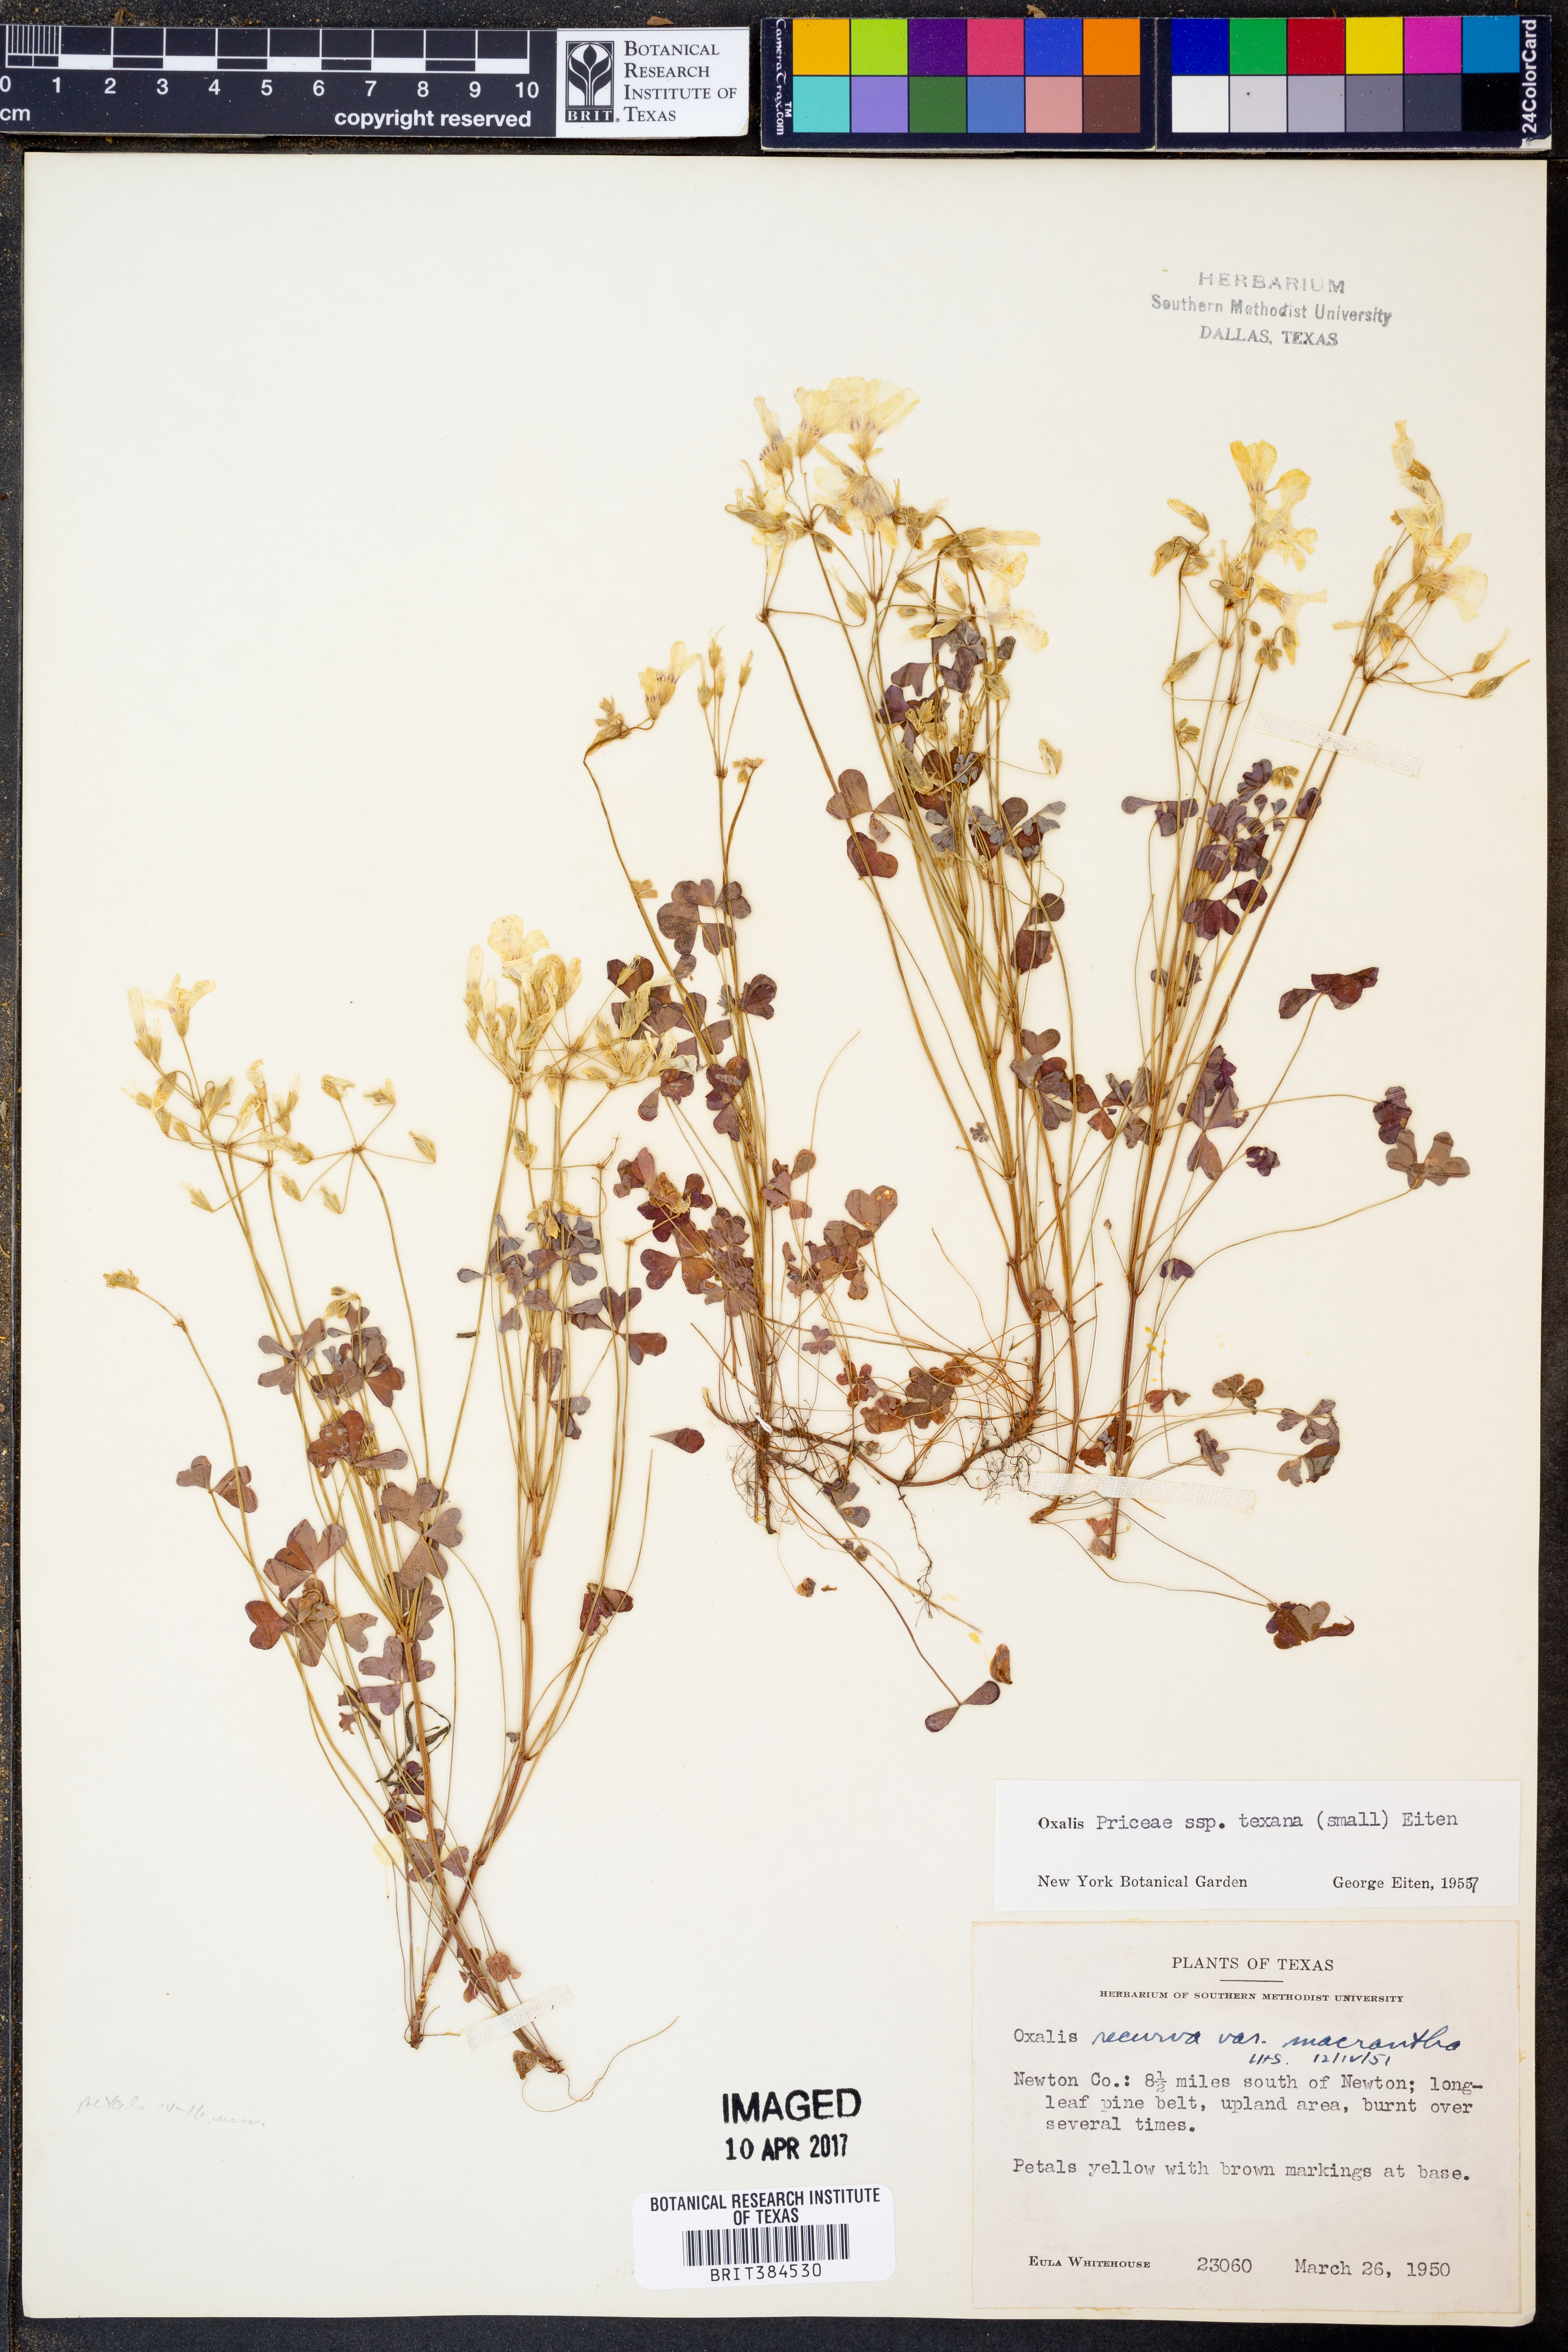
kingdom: Plantae
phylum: Tracheophyta
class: Magnoliopsida
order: Oxalidales
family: Oxalidaceae
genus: Oxalis
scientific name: Oxalis texana
